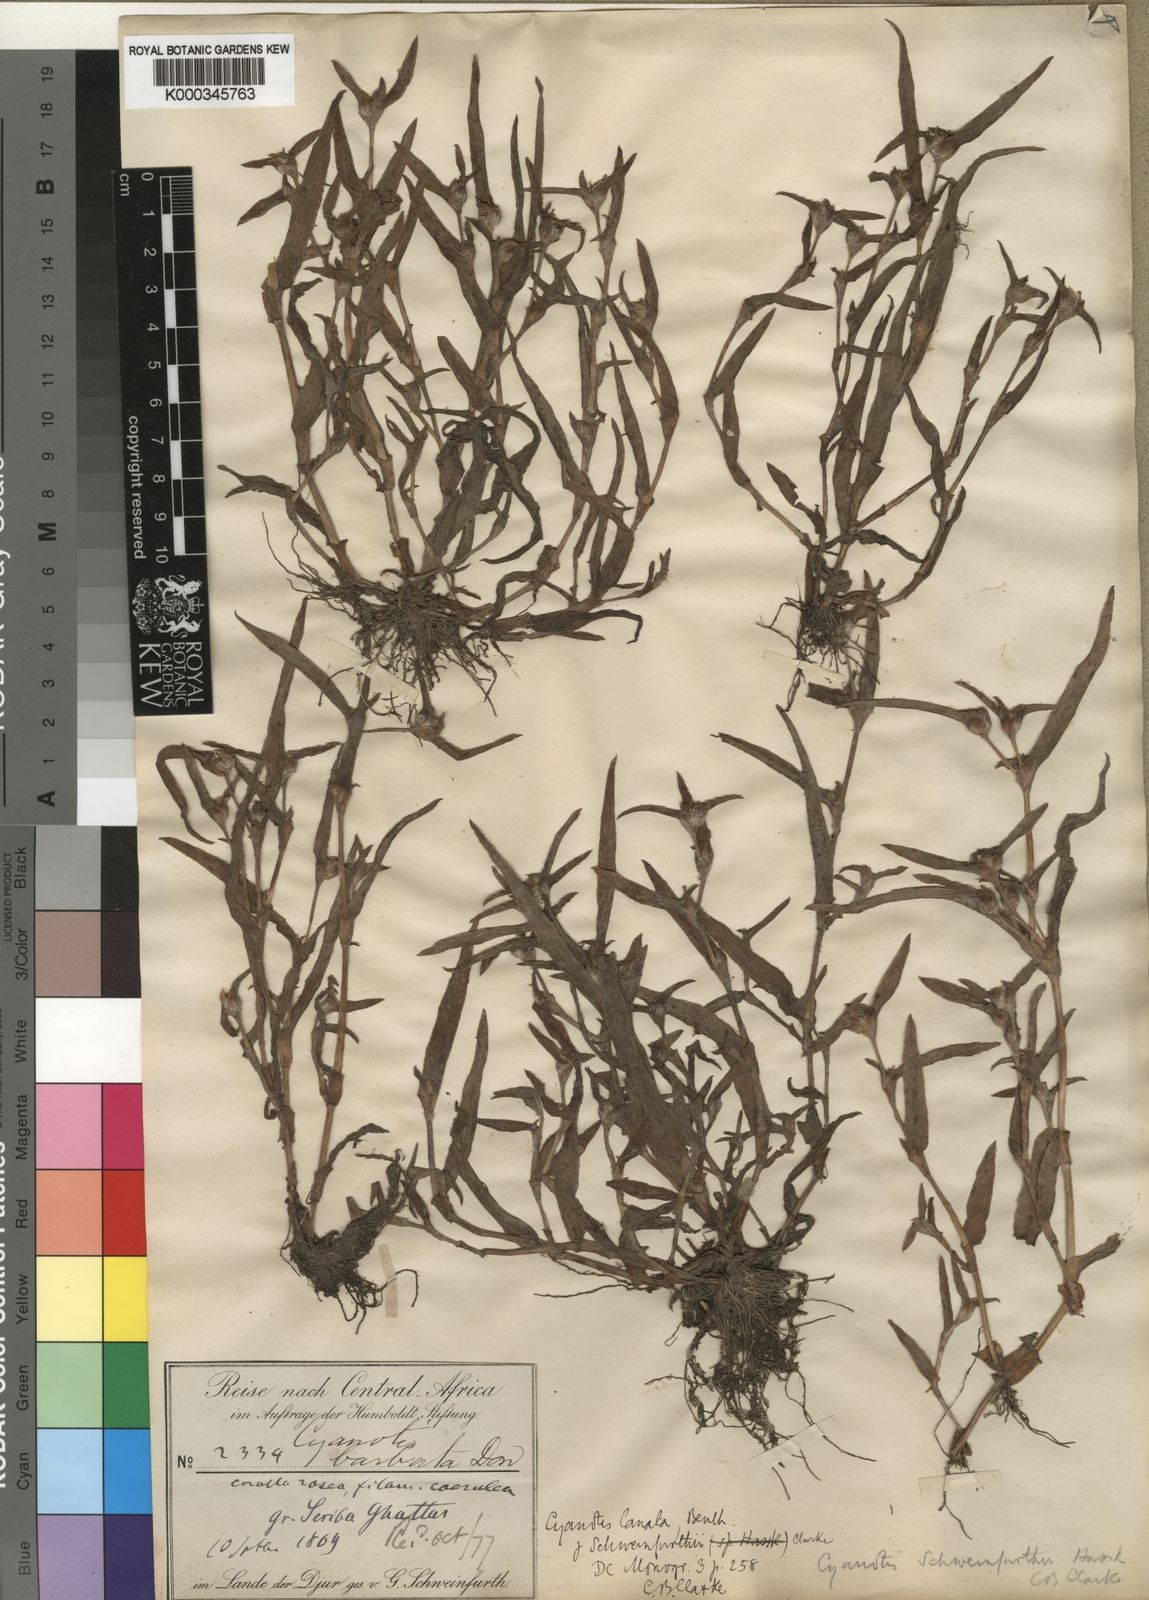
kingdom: Plantae
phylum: Tracheophyta
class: Liliopsida
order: Commelinales
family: Commelinaceae
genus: Cyanotis
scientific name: Cyanotis lanata
